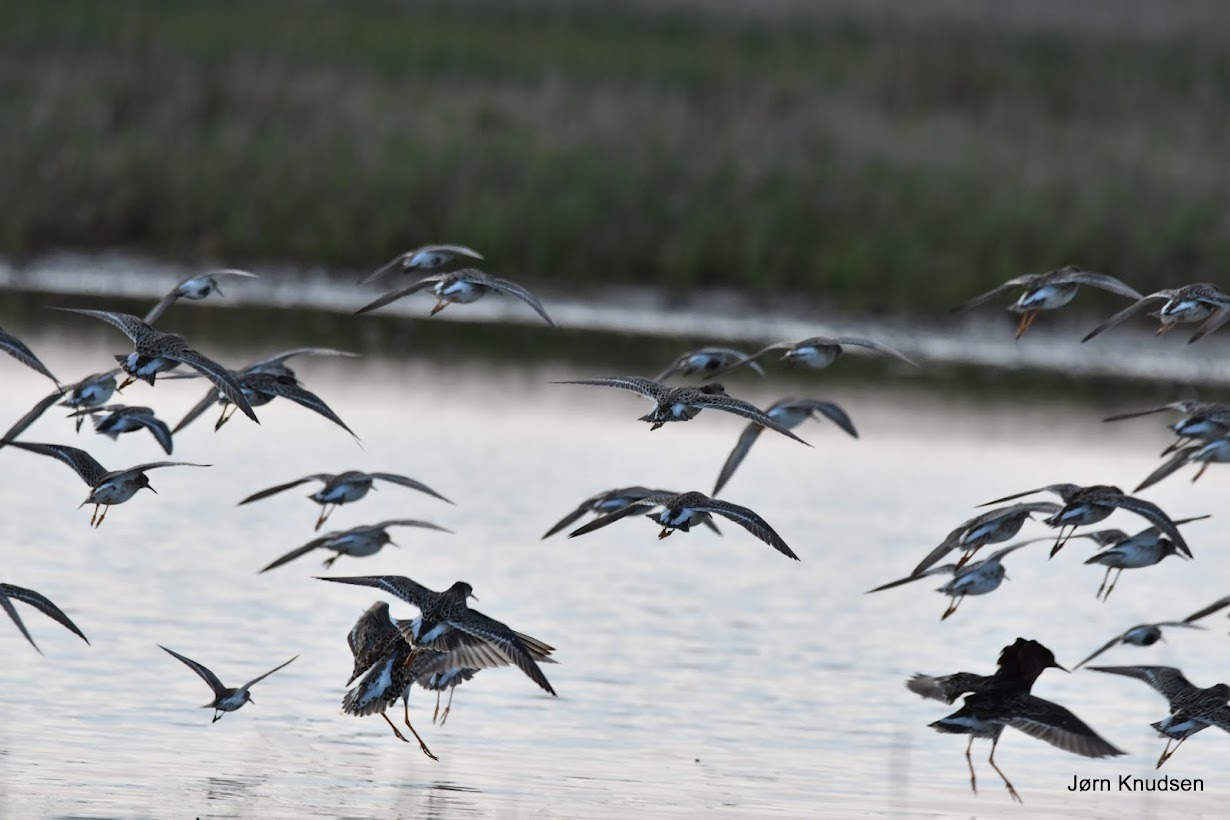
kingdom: Animalia
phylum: Chordata
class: Aves
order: Charadriiformes
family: Scolopacidae
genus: Calidris
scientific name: Calidris pugnax
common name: Brushane
